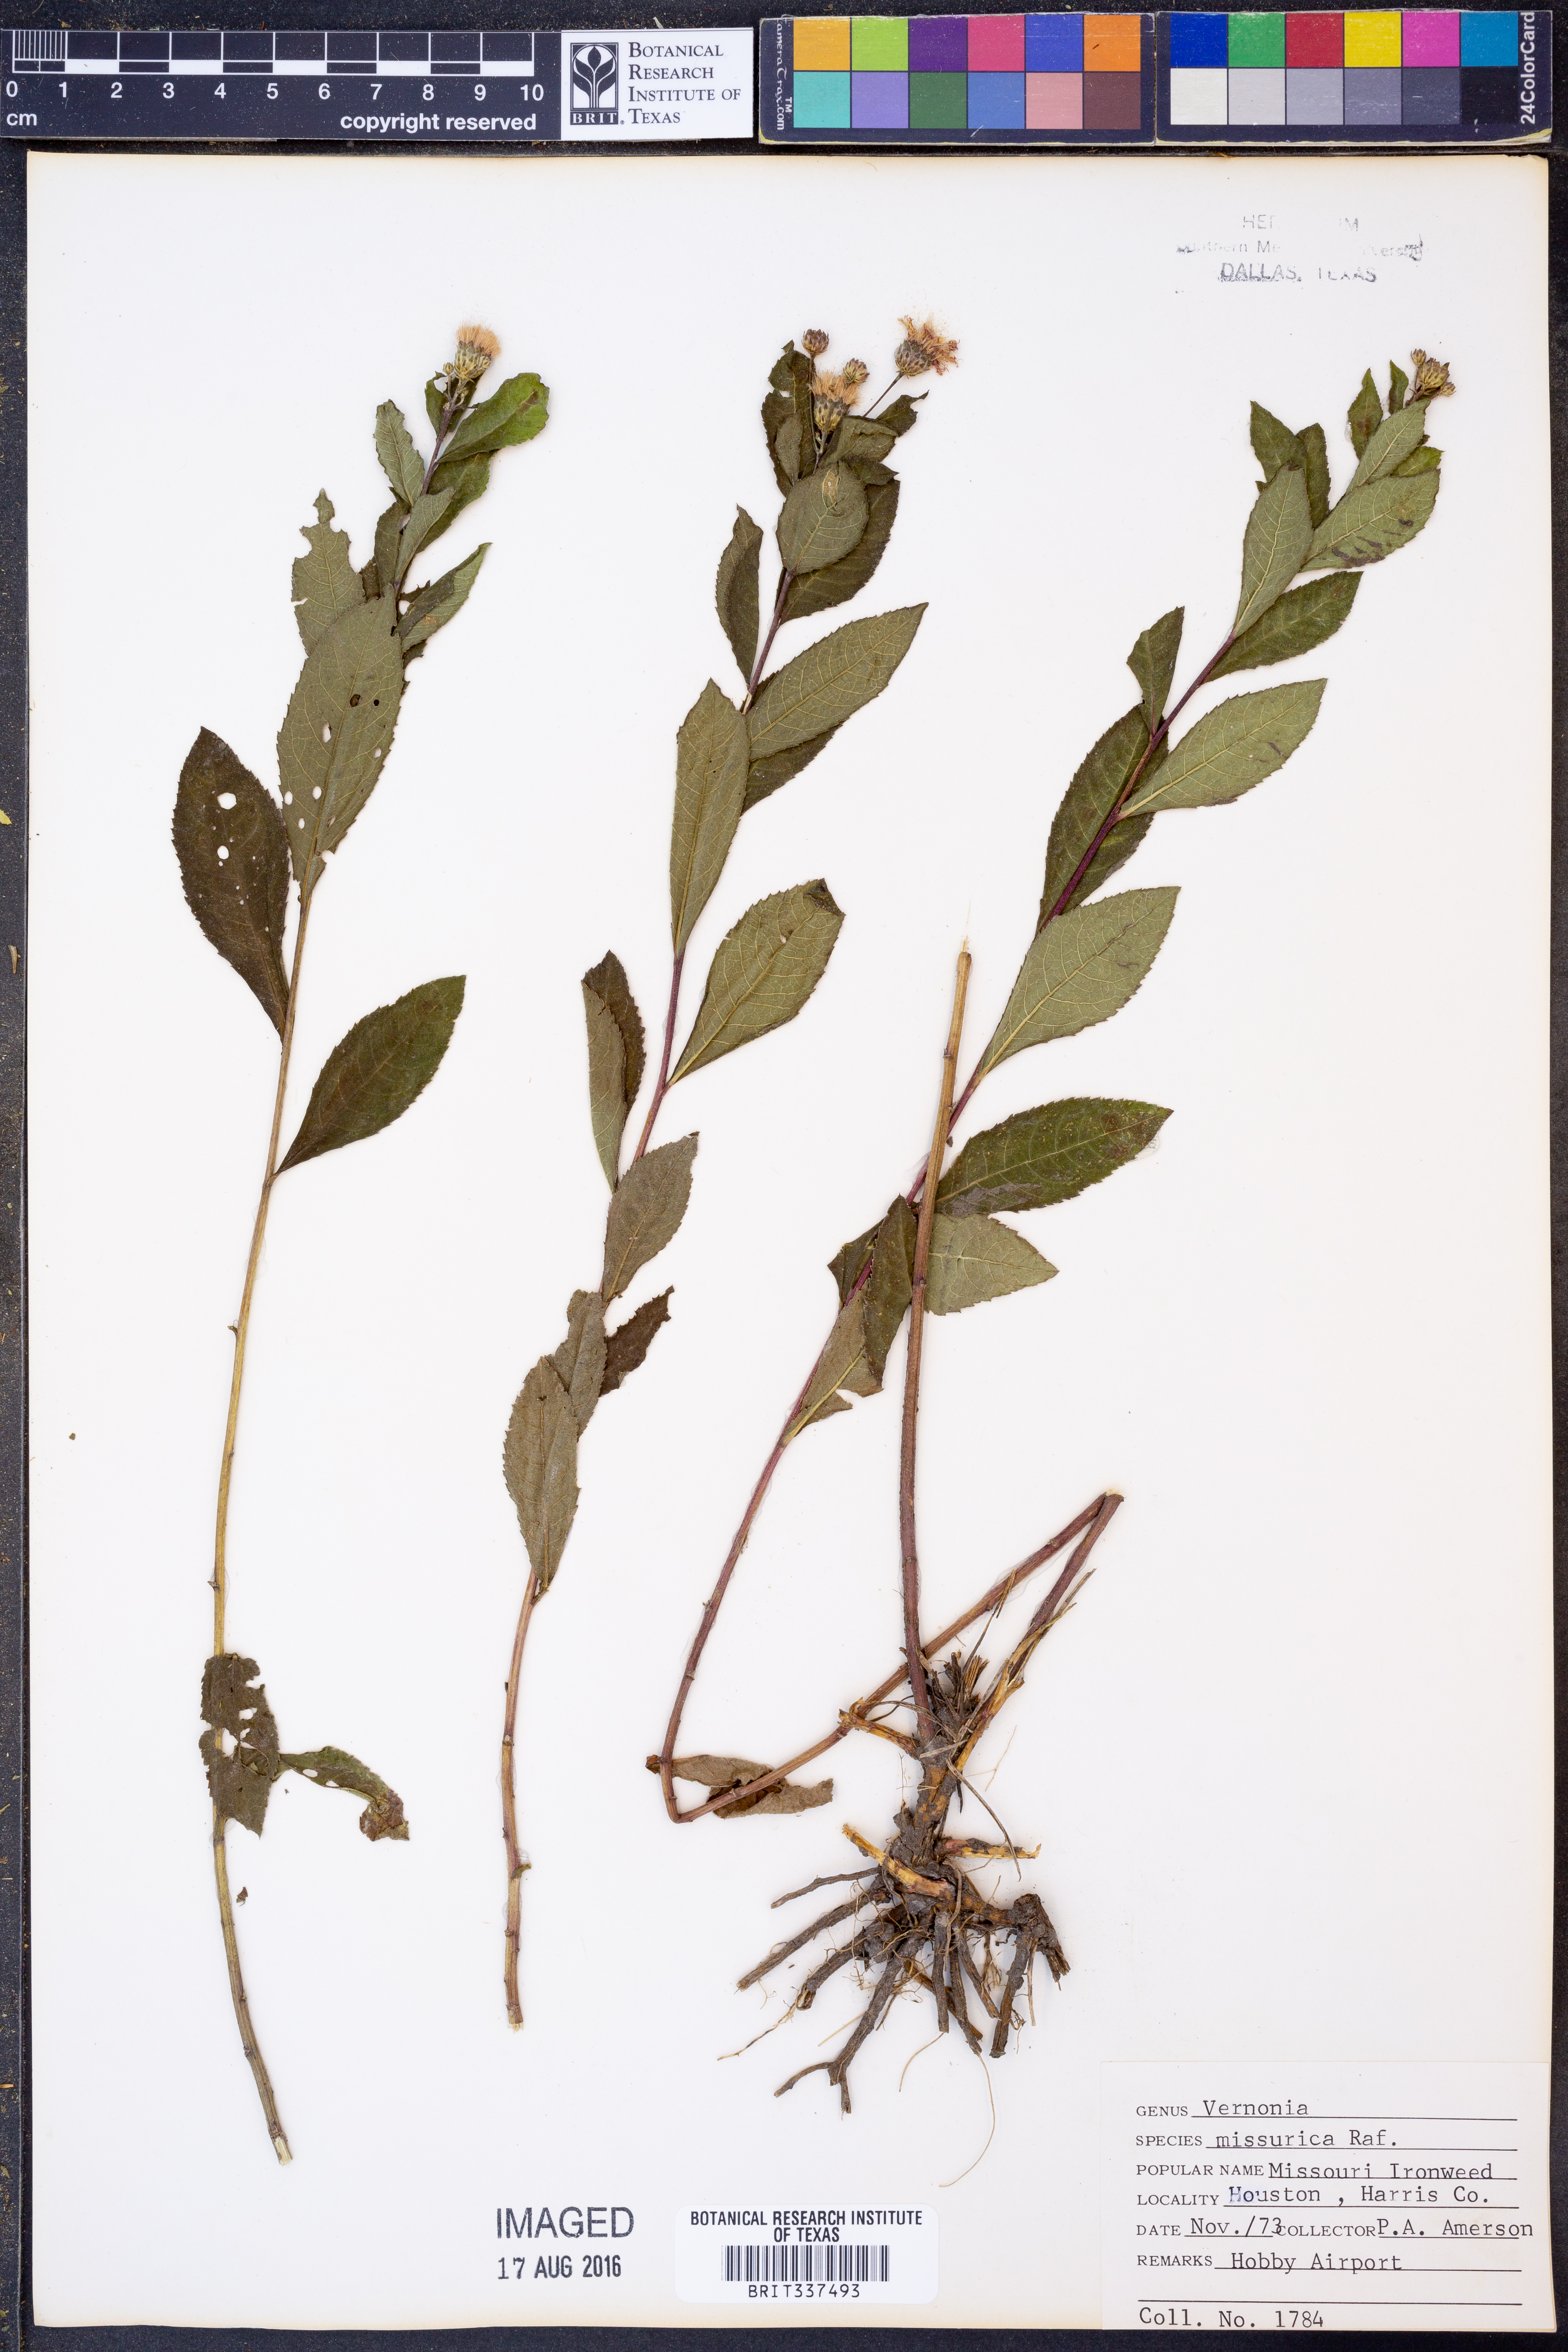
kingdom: Plantae
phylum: Tracheophyta
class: Magnoliopsida
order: Asterales
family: Asteraceae
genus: Vernonia
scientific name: Vernonia missurica
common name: Missouri ironweed
